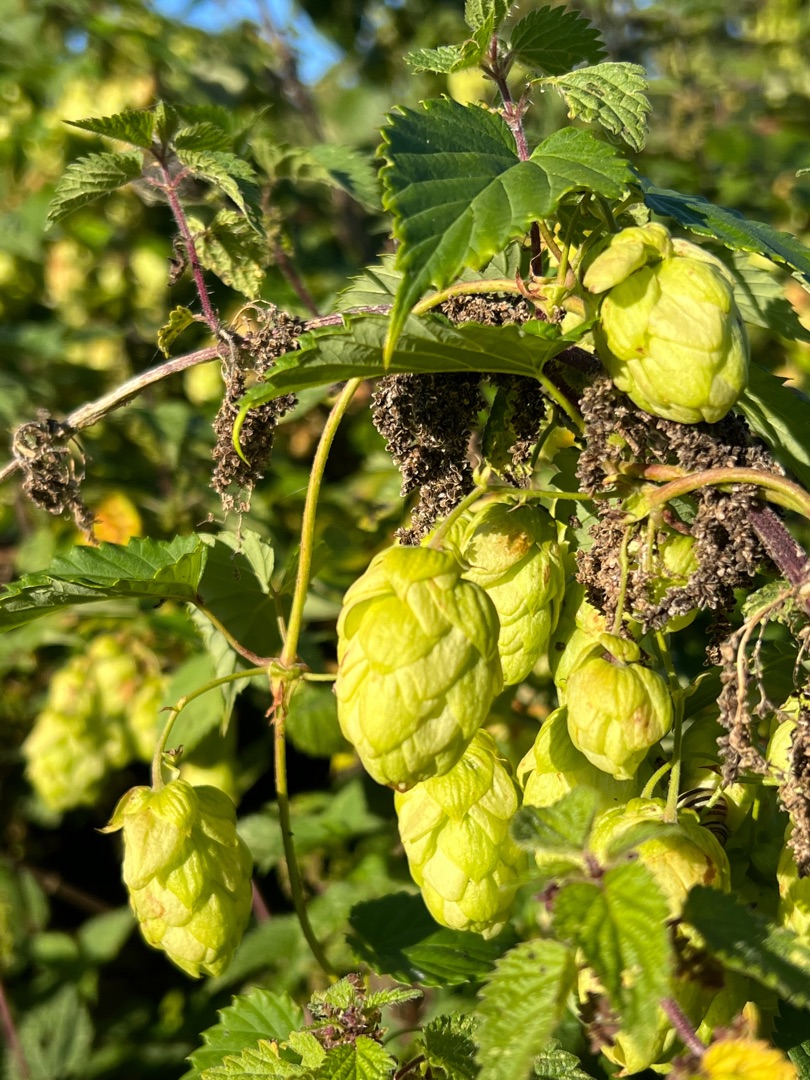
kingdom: Plantae
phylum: Tracheophyta
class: Magnoliopsida
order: Rosales
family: Cannabaceae
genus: Humulus
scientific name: Humulus lupulus
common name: Humle
